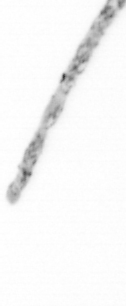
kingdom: Chromista
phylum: Ochrophyta
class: Bacillariophyceae
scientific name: Bacillariophyceae
